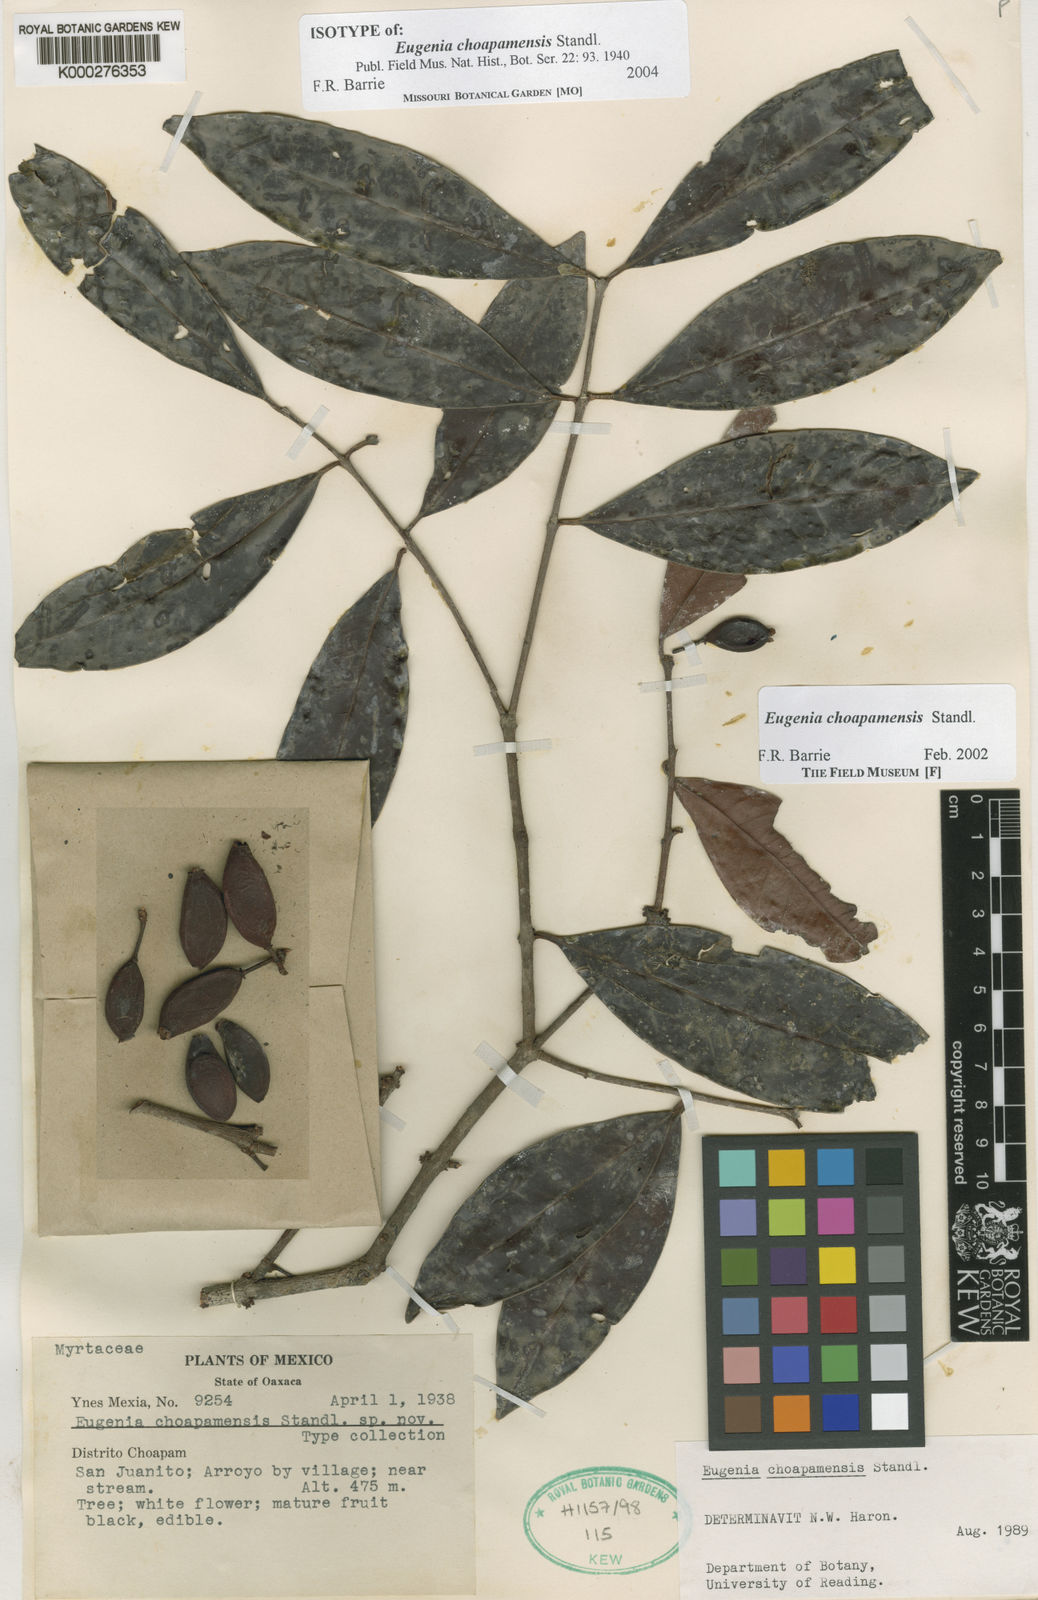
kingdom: Plantae
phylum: Tracheophyta
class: Magnoliopsida
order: Myrtales
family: Myrtaceae
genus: Eugenia
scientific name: Eugenia choapamensis
